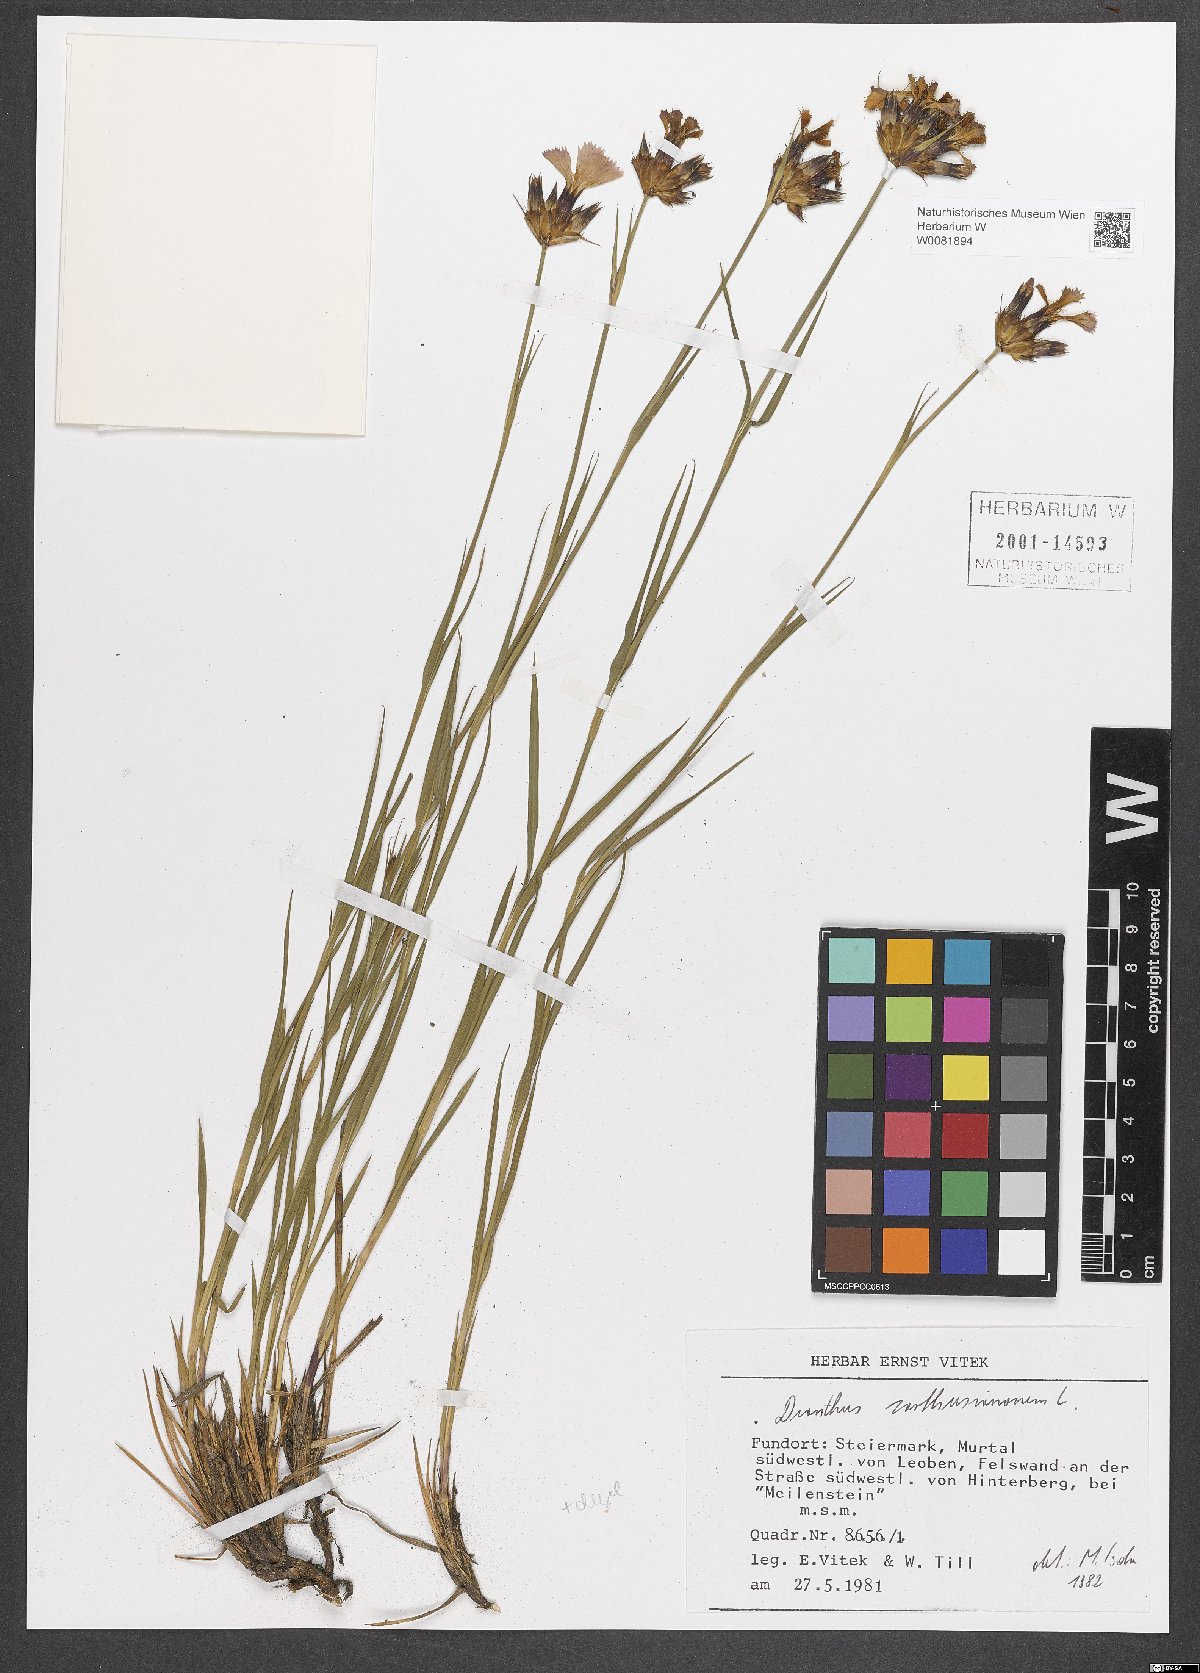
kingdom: Plantae
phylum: Tracheophyta
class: Magnoliopsida
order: Caryophyllales
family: Caryophyllaceae
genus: Dianthus
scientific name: Dianthus carthusianorum
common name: Carthusian pink
